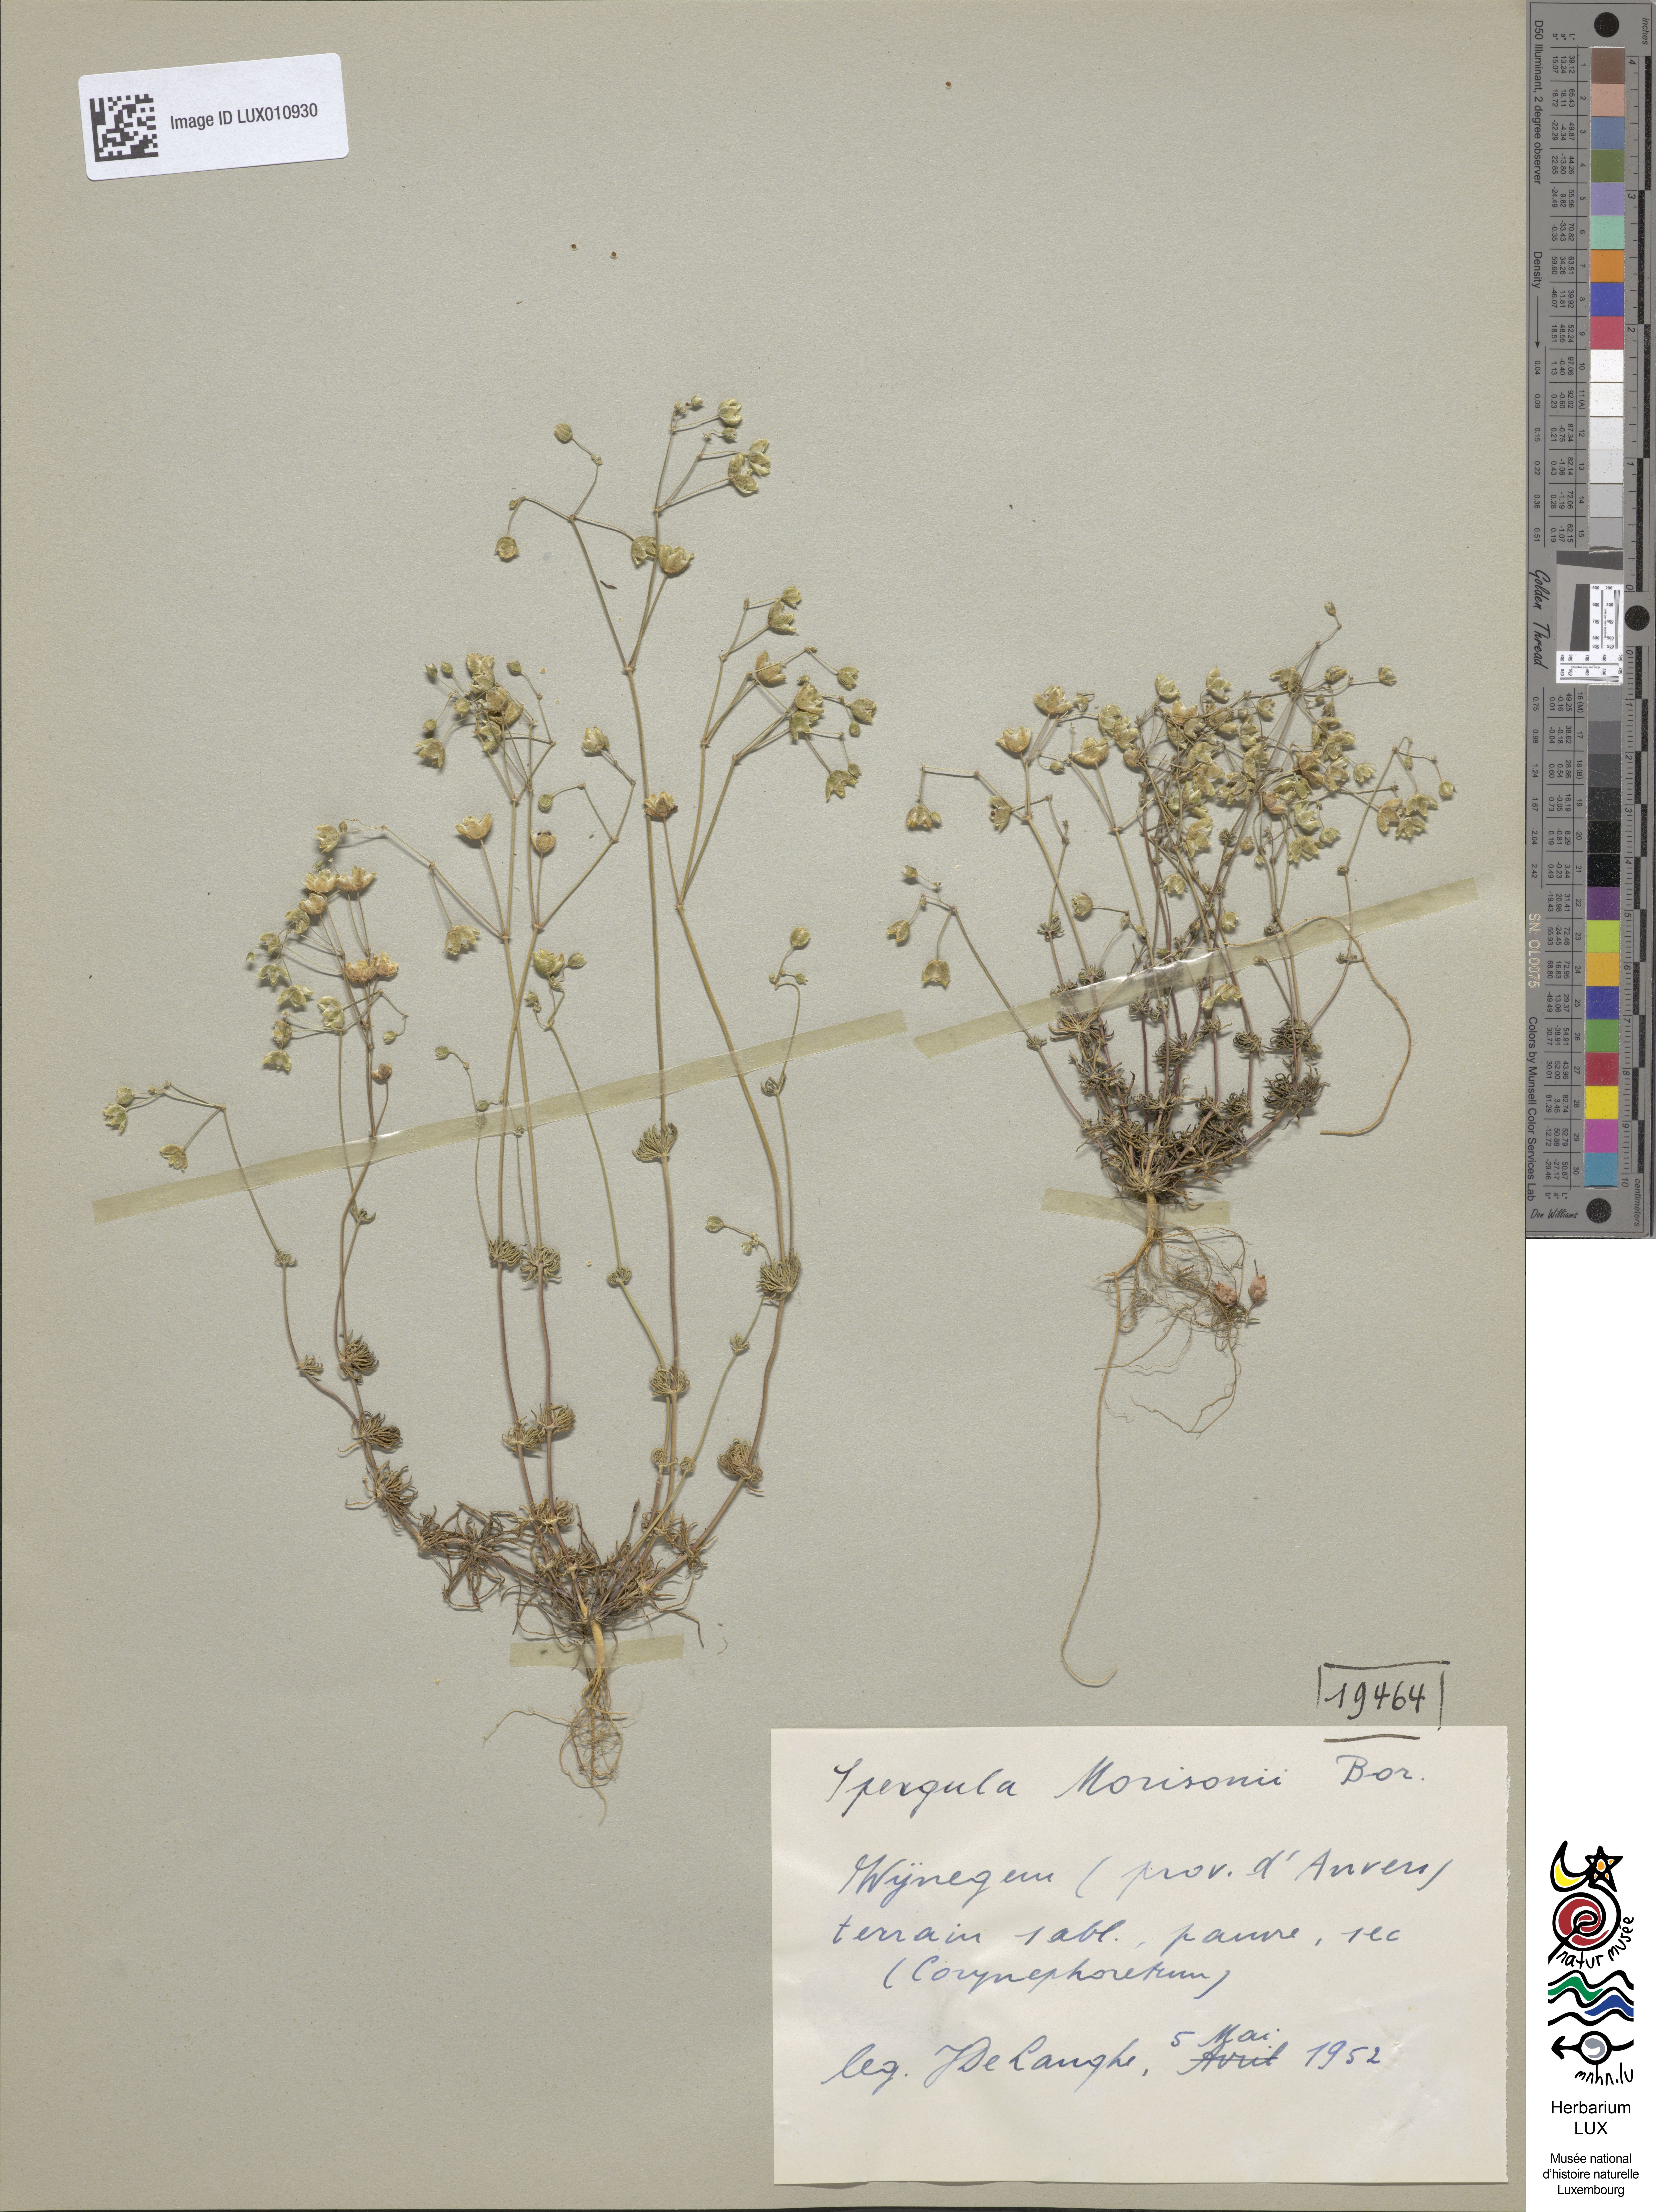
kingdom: Plantae
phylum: Tracheophyta
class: Magnoliopsida
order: Caryophyllales
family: Caryophyllaceae
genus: Spergula
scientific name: Spergula morisonii
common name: Pearlwort spurrey
